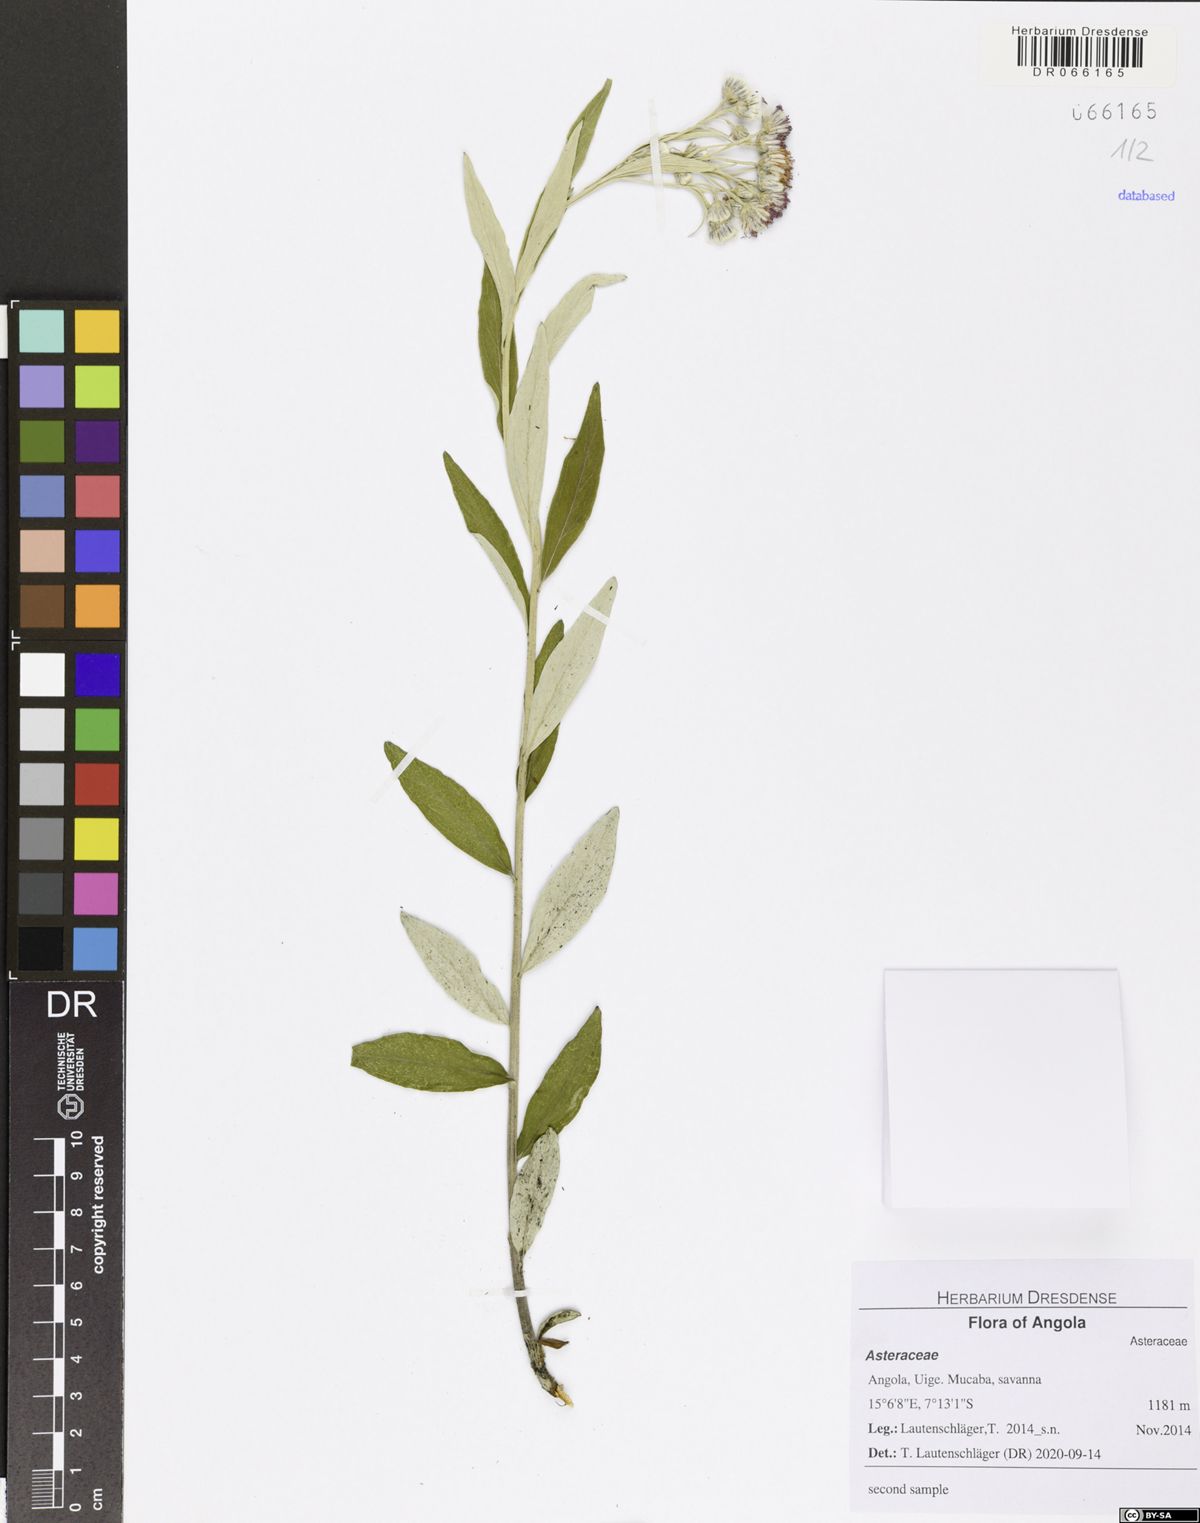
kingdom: Plantae
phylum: Tracheophyta
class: Magnoliopsida
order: Asterales
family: Asteraceae
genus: Hilliardiella
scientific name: Hilliardiella smithiana
